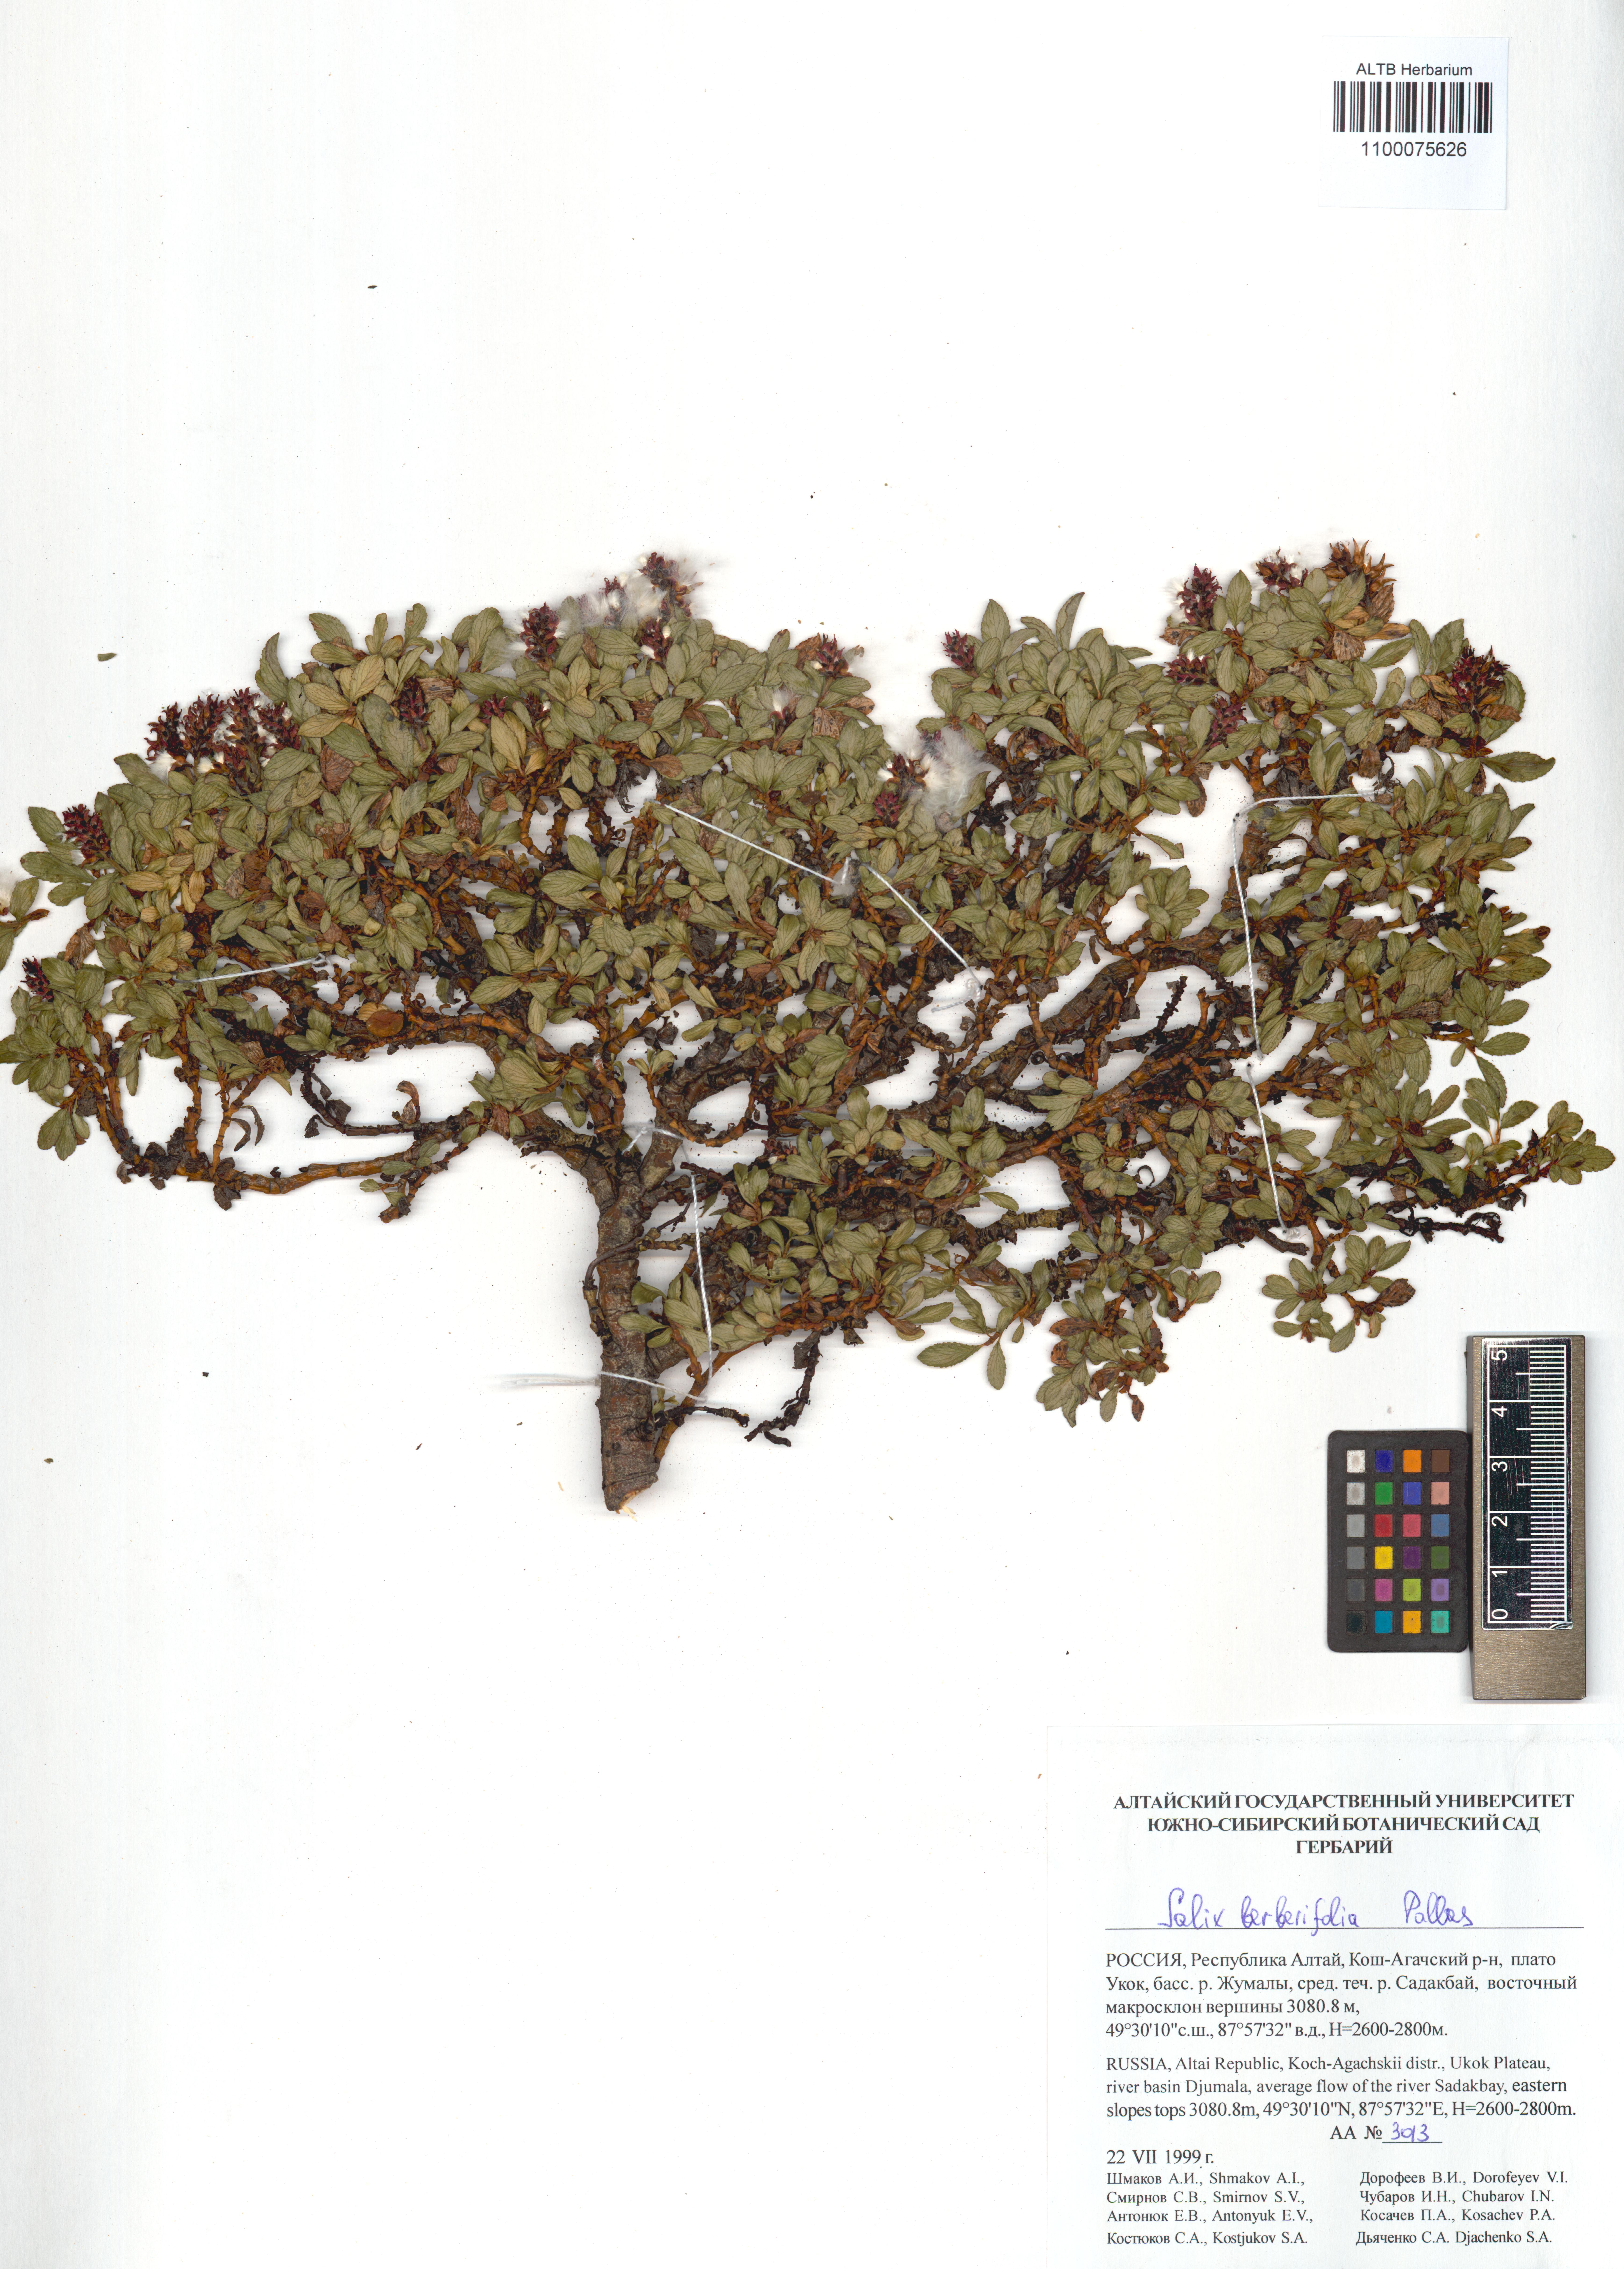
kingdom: Plantae
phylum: Tracheophyta
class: Magnoliopsida
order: Malpighiales
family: Salicaceae
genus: Salix
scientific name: Salix berberifolia
